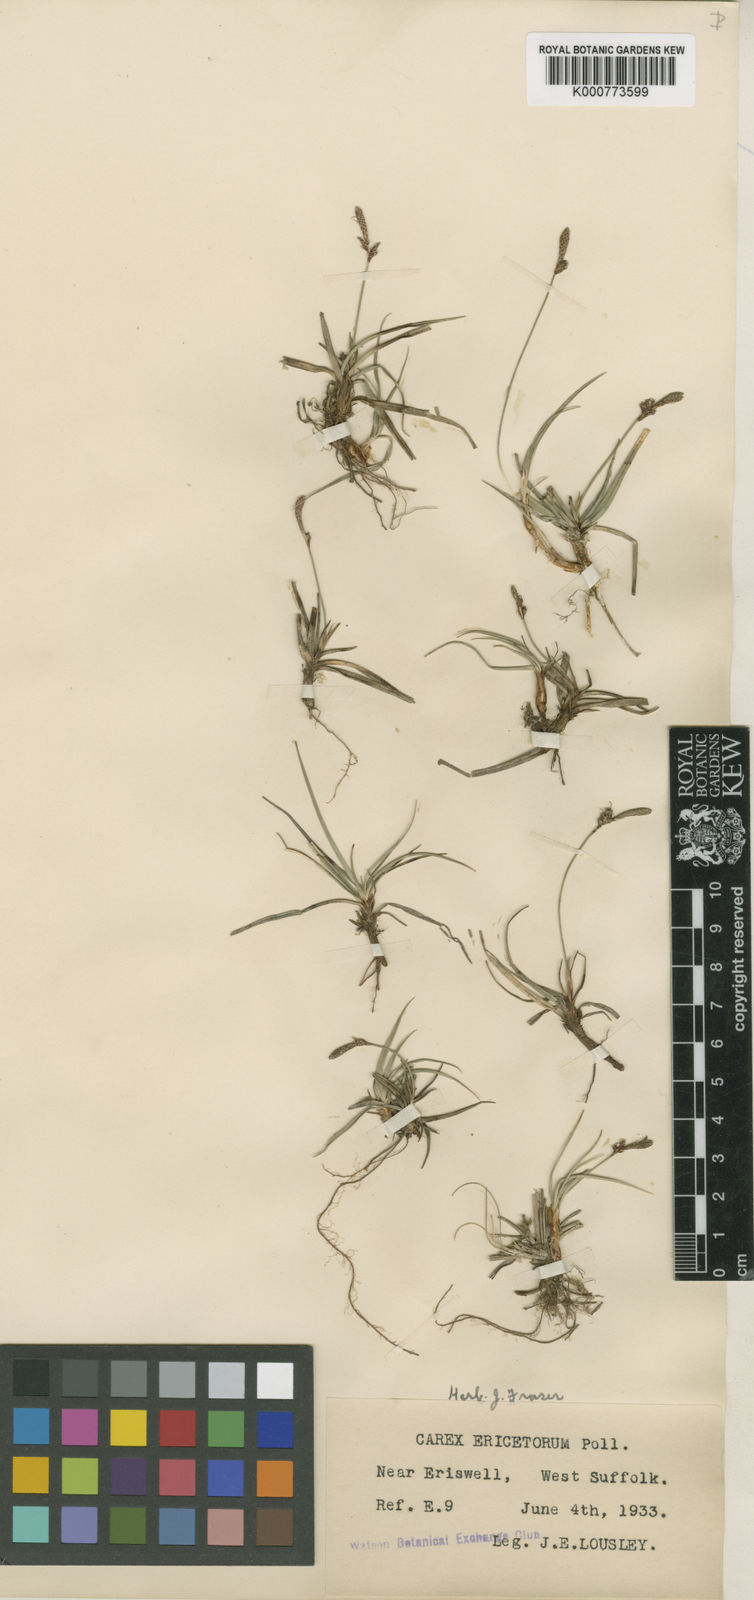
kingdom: Plantae
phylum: Tracheophyta
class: Liliopsida
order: Poales
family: Cyperaceae
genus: Carex
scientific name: Carex ericetorum
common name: Rare spring-sedge
